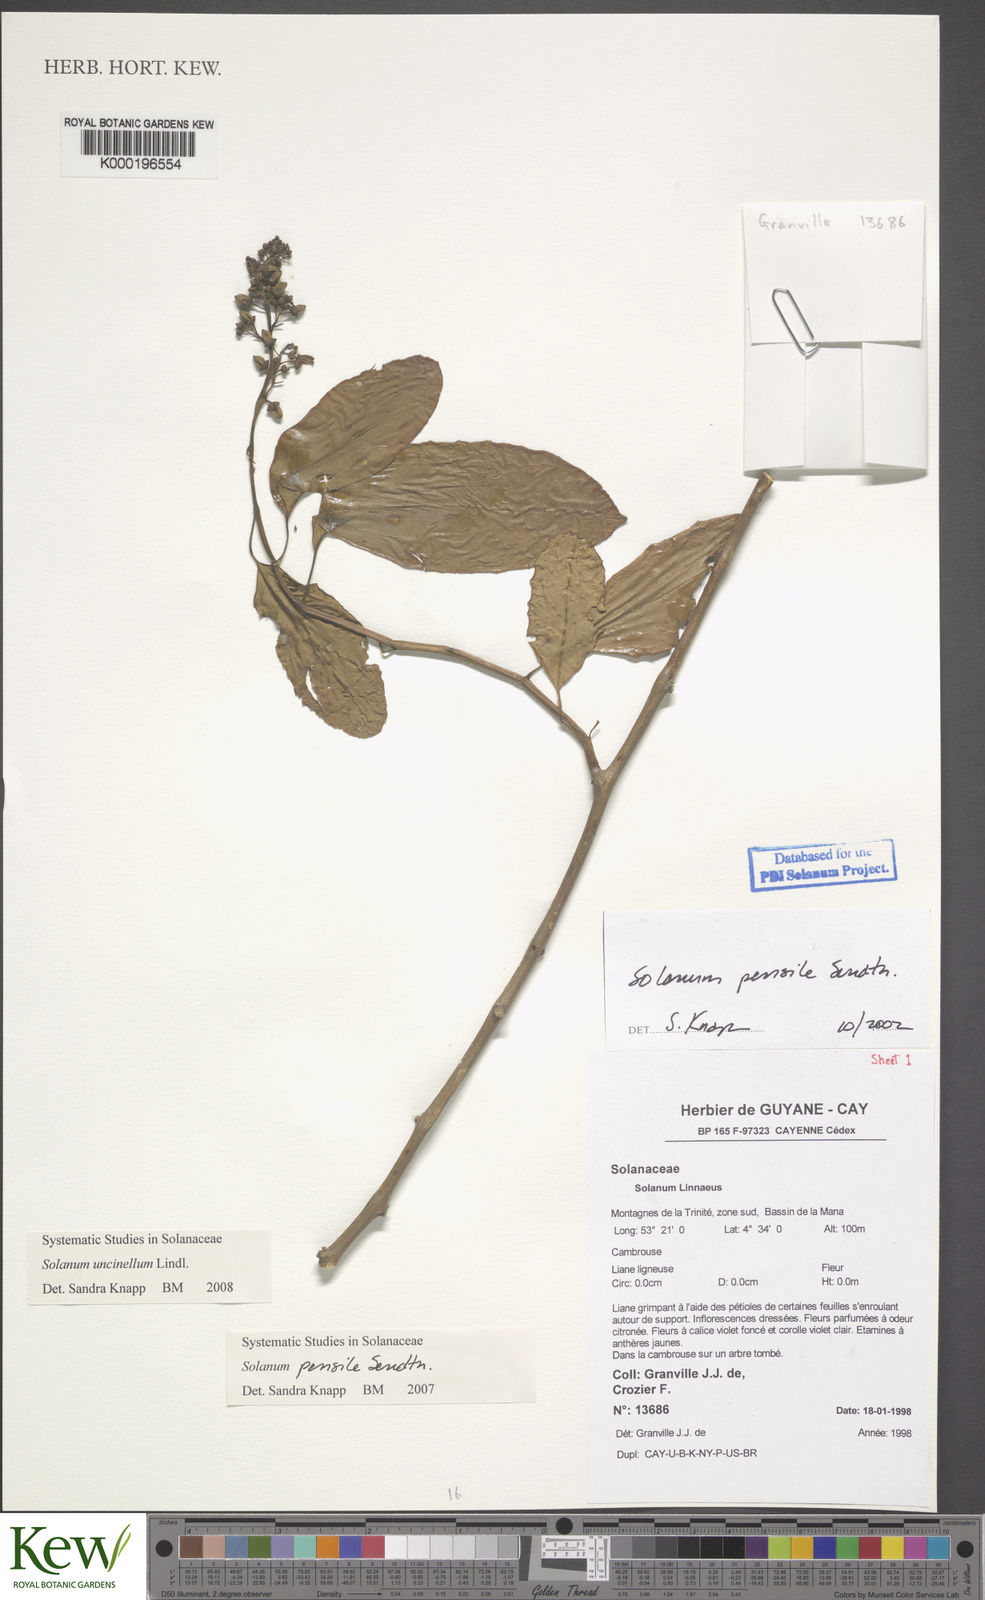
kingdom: Plantae
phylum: Tracheophyta
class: Magnoliopsida
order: Solanales
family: Solanaceae
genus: Solanum
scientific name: Solanum uncinellum
